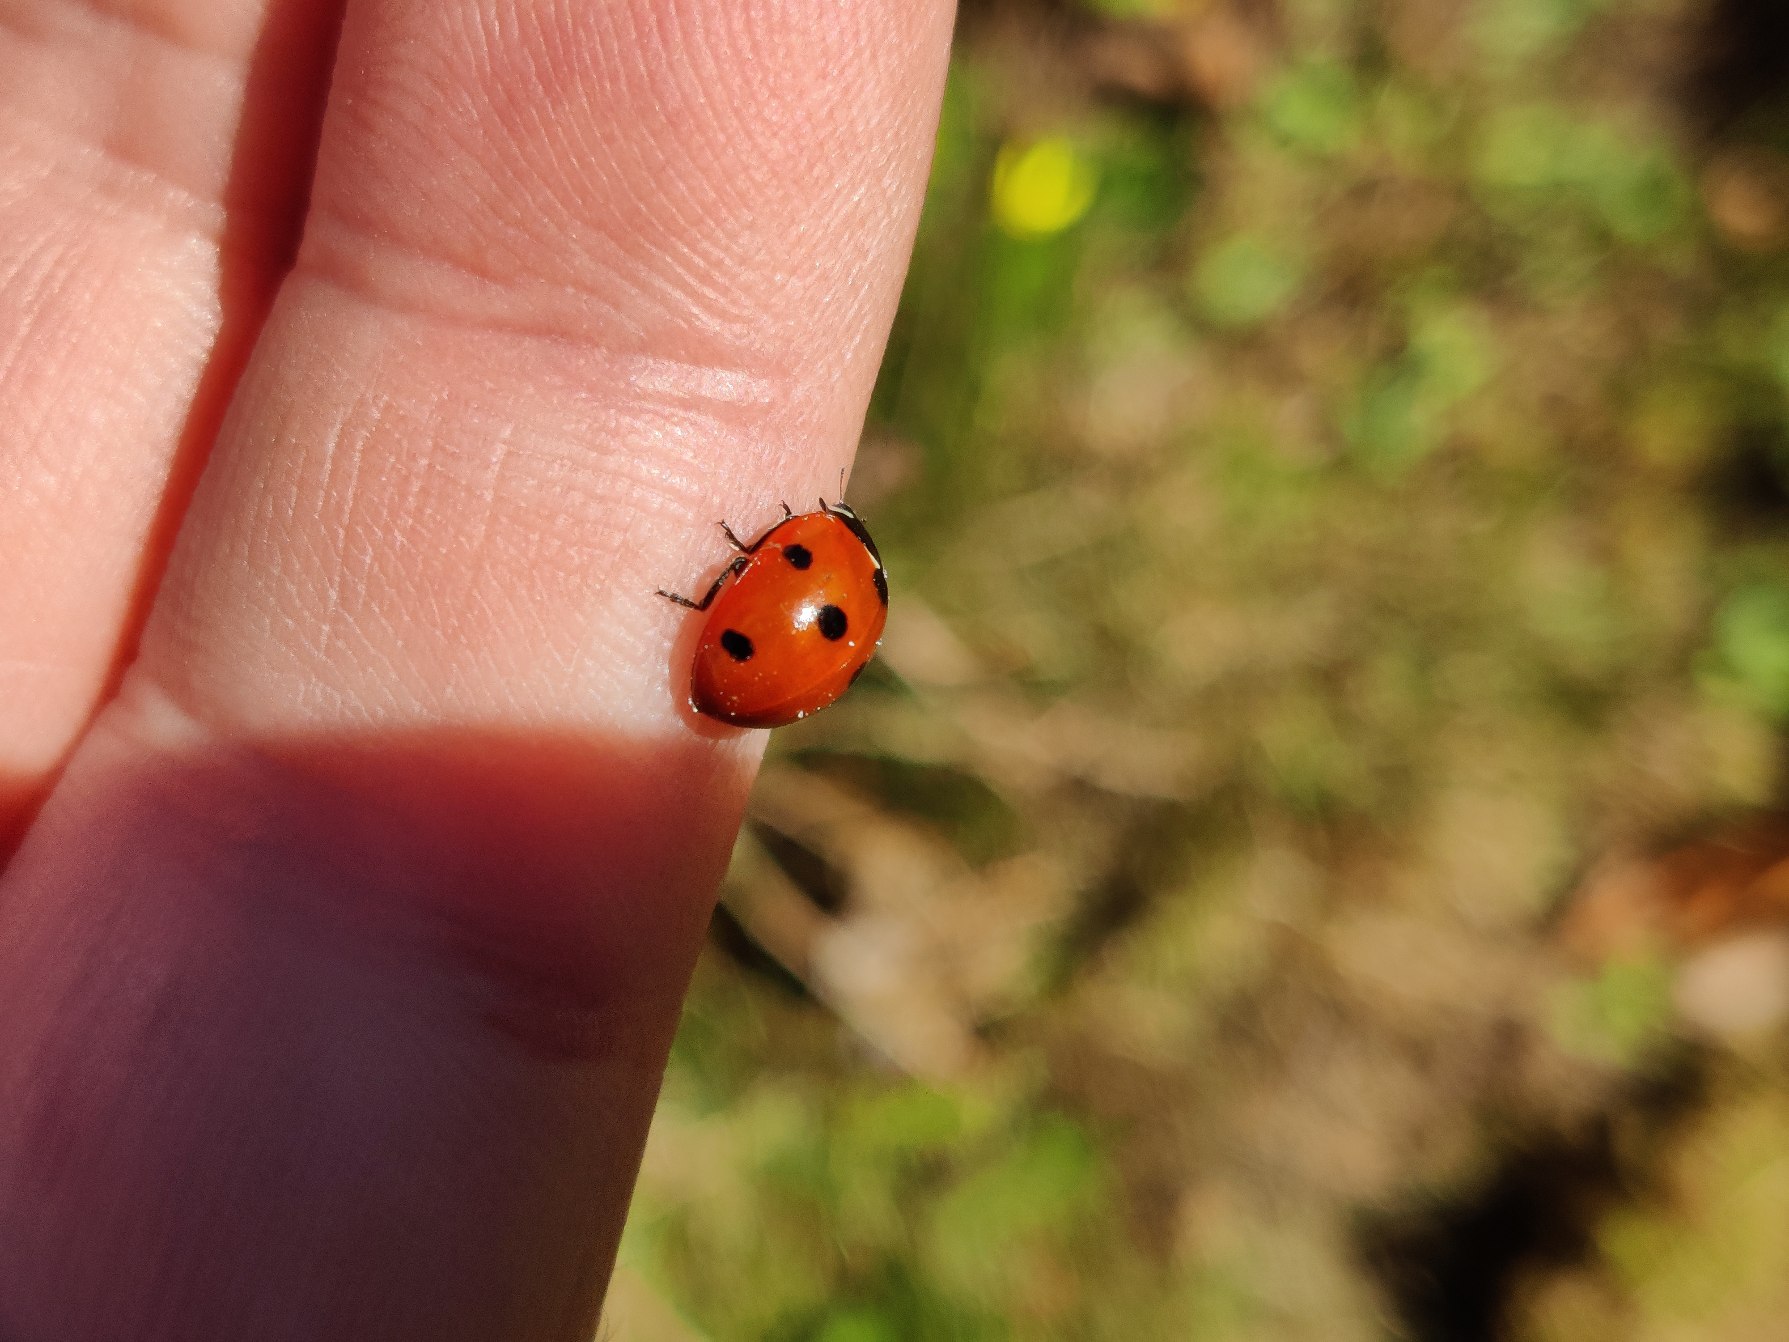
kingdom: Animalia
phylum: Arthropoda
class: Insecta
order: Coleoptera
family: Coccinellidae
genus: Coccinella
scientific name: Coccinella septempunctata
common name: Syvplettet mariehøne
